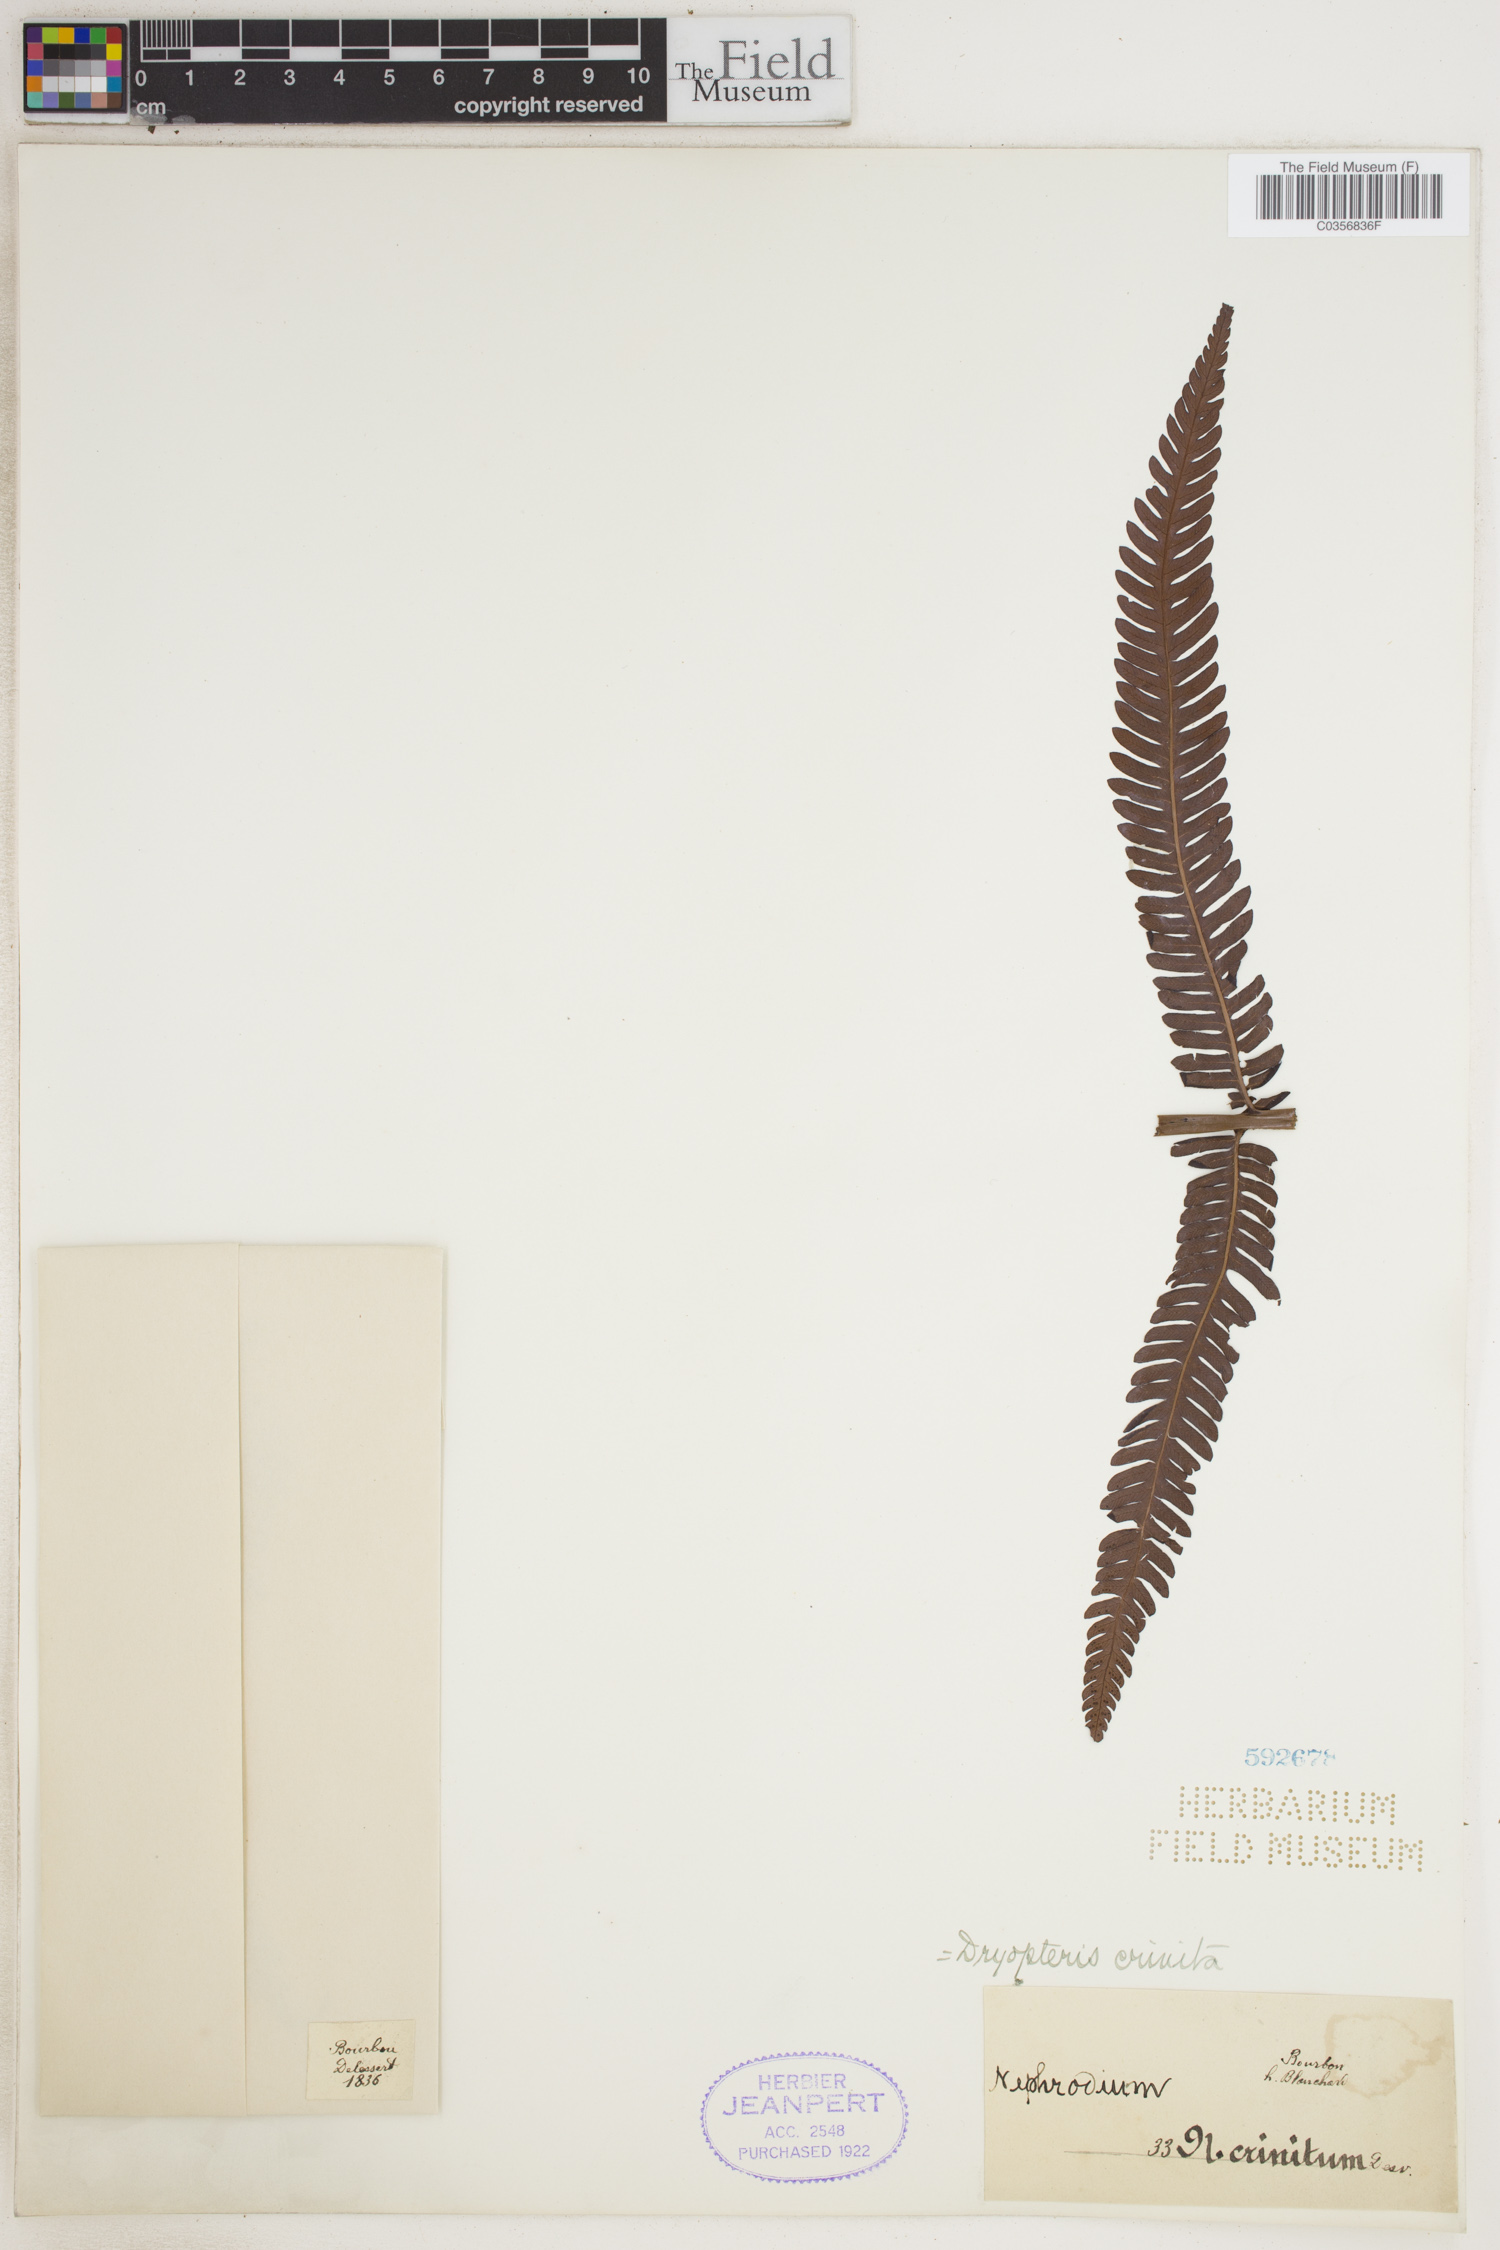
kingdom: Plantae
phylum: Tracheophyta
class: Polypodiopsida
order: Polypodiales
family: Dryopteridaceae
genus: Ctenitis
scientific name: Ctenitis crinita
